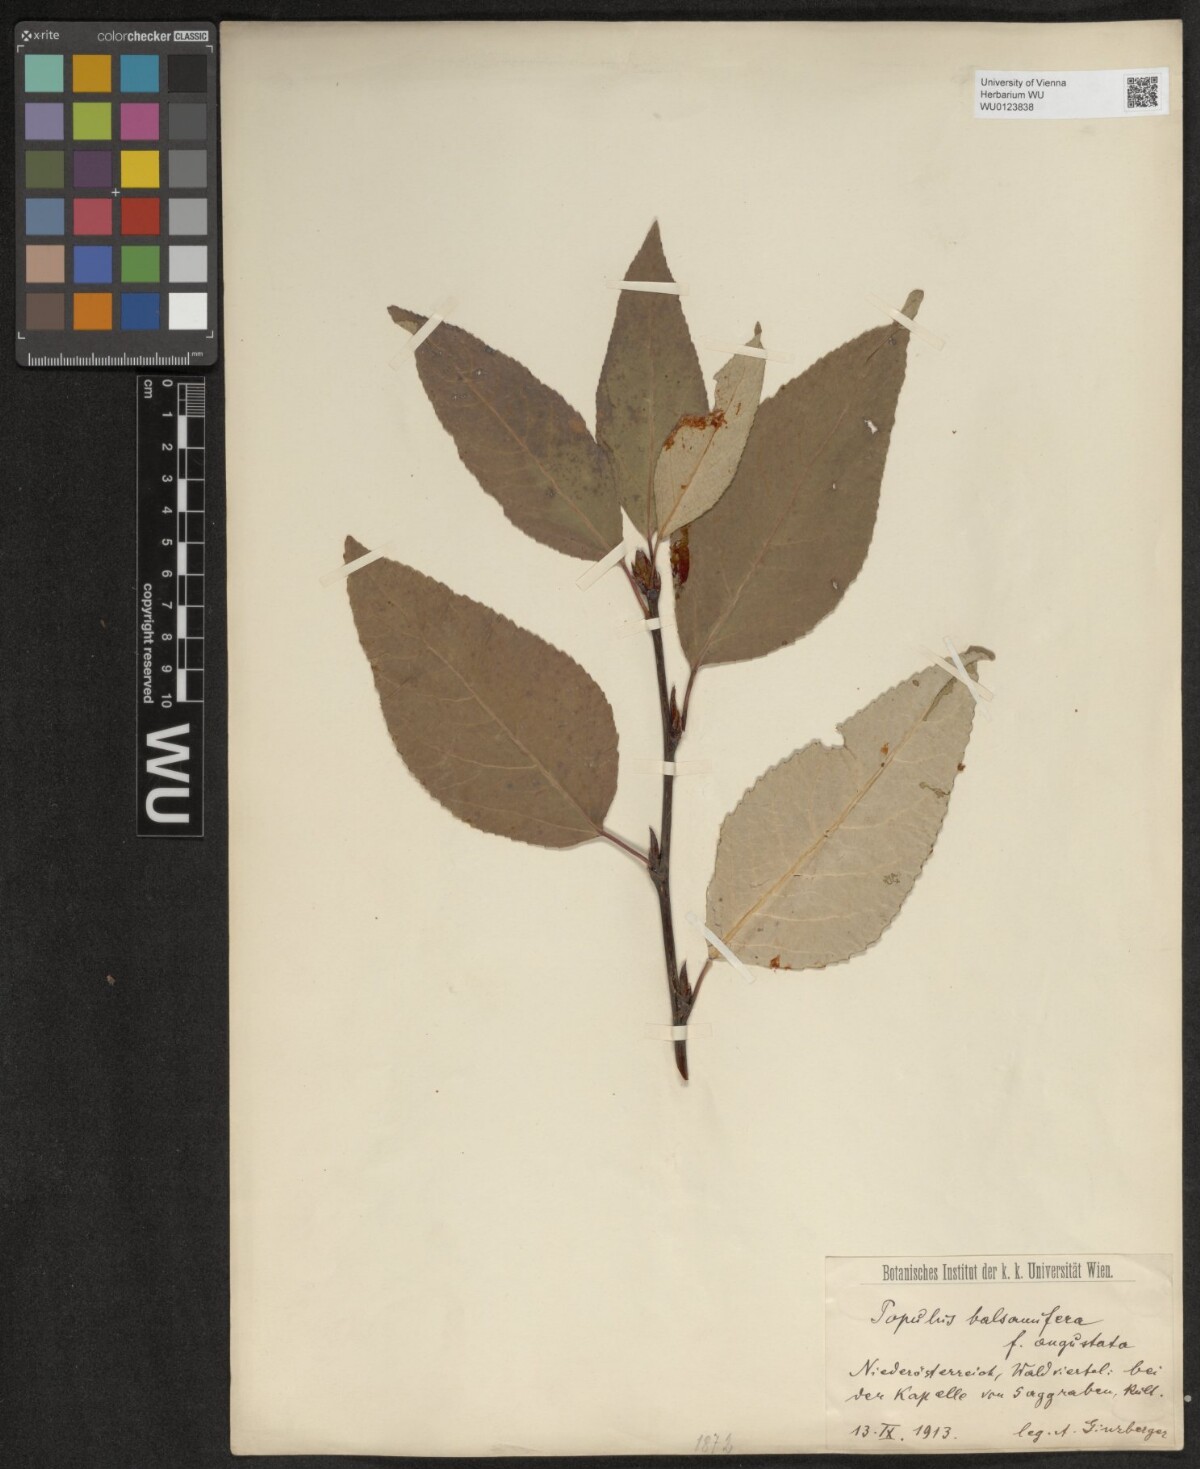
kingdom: Plantae
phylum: Tracheophyta
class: Magnoliopsida
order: Malpighiales
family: Salicaceae
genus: Populus
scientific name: Populus balsamifera
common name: Balsam poplar
